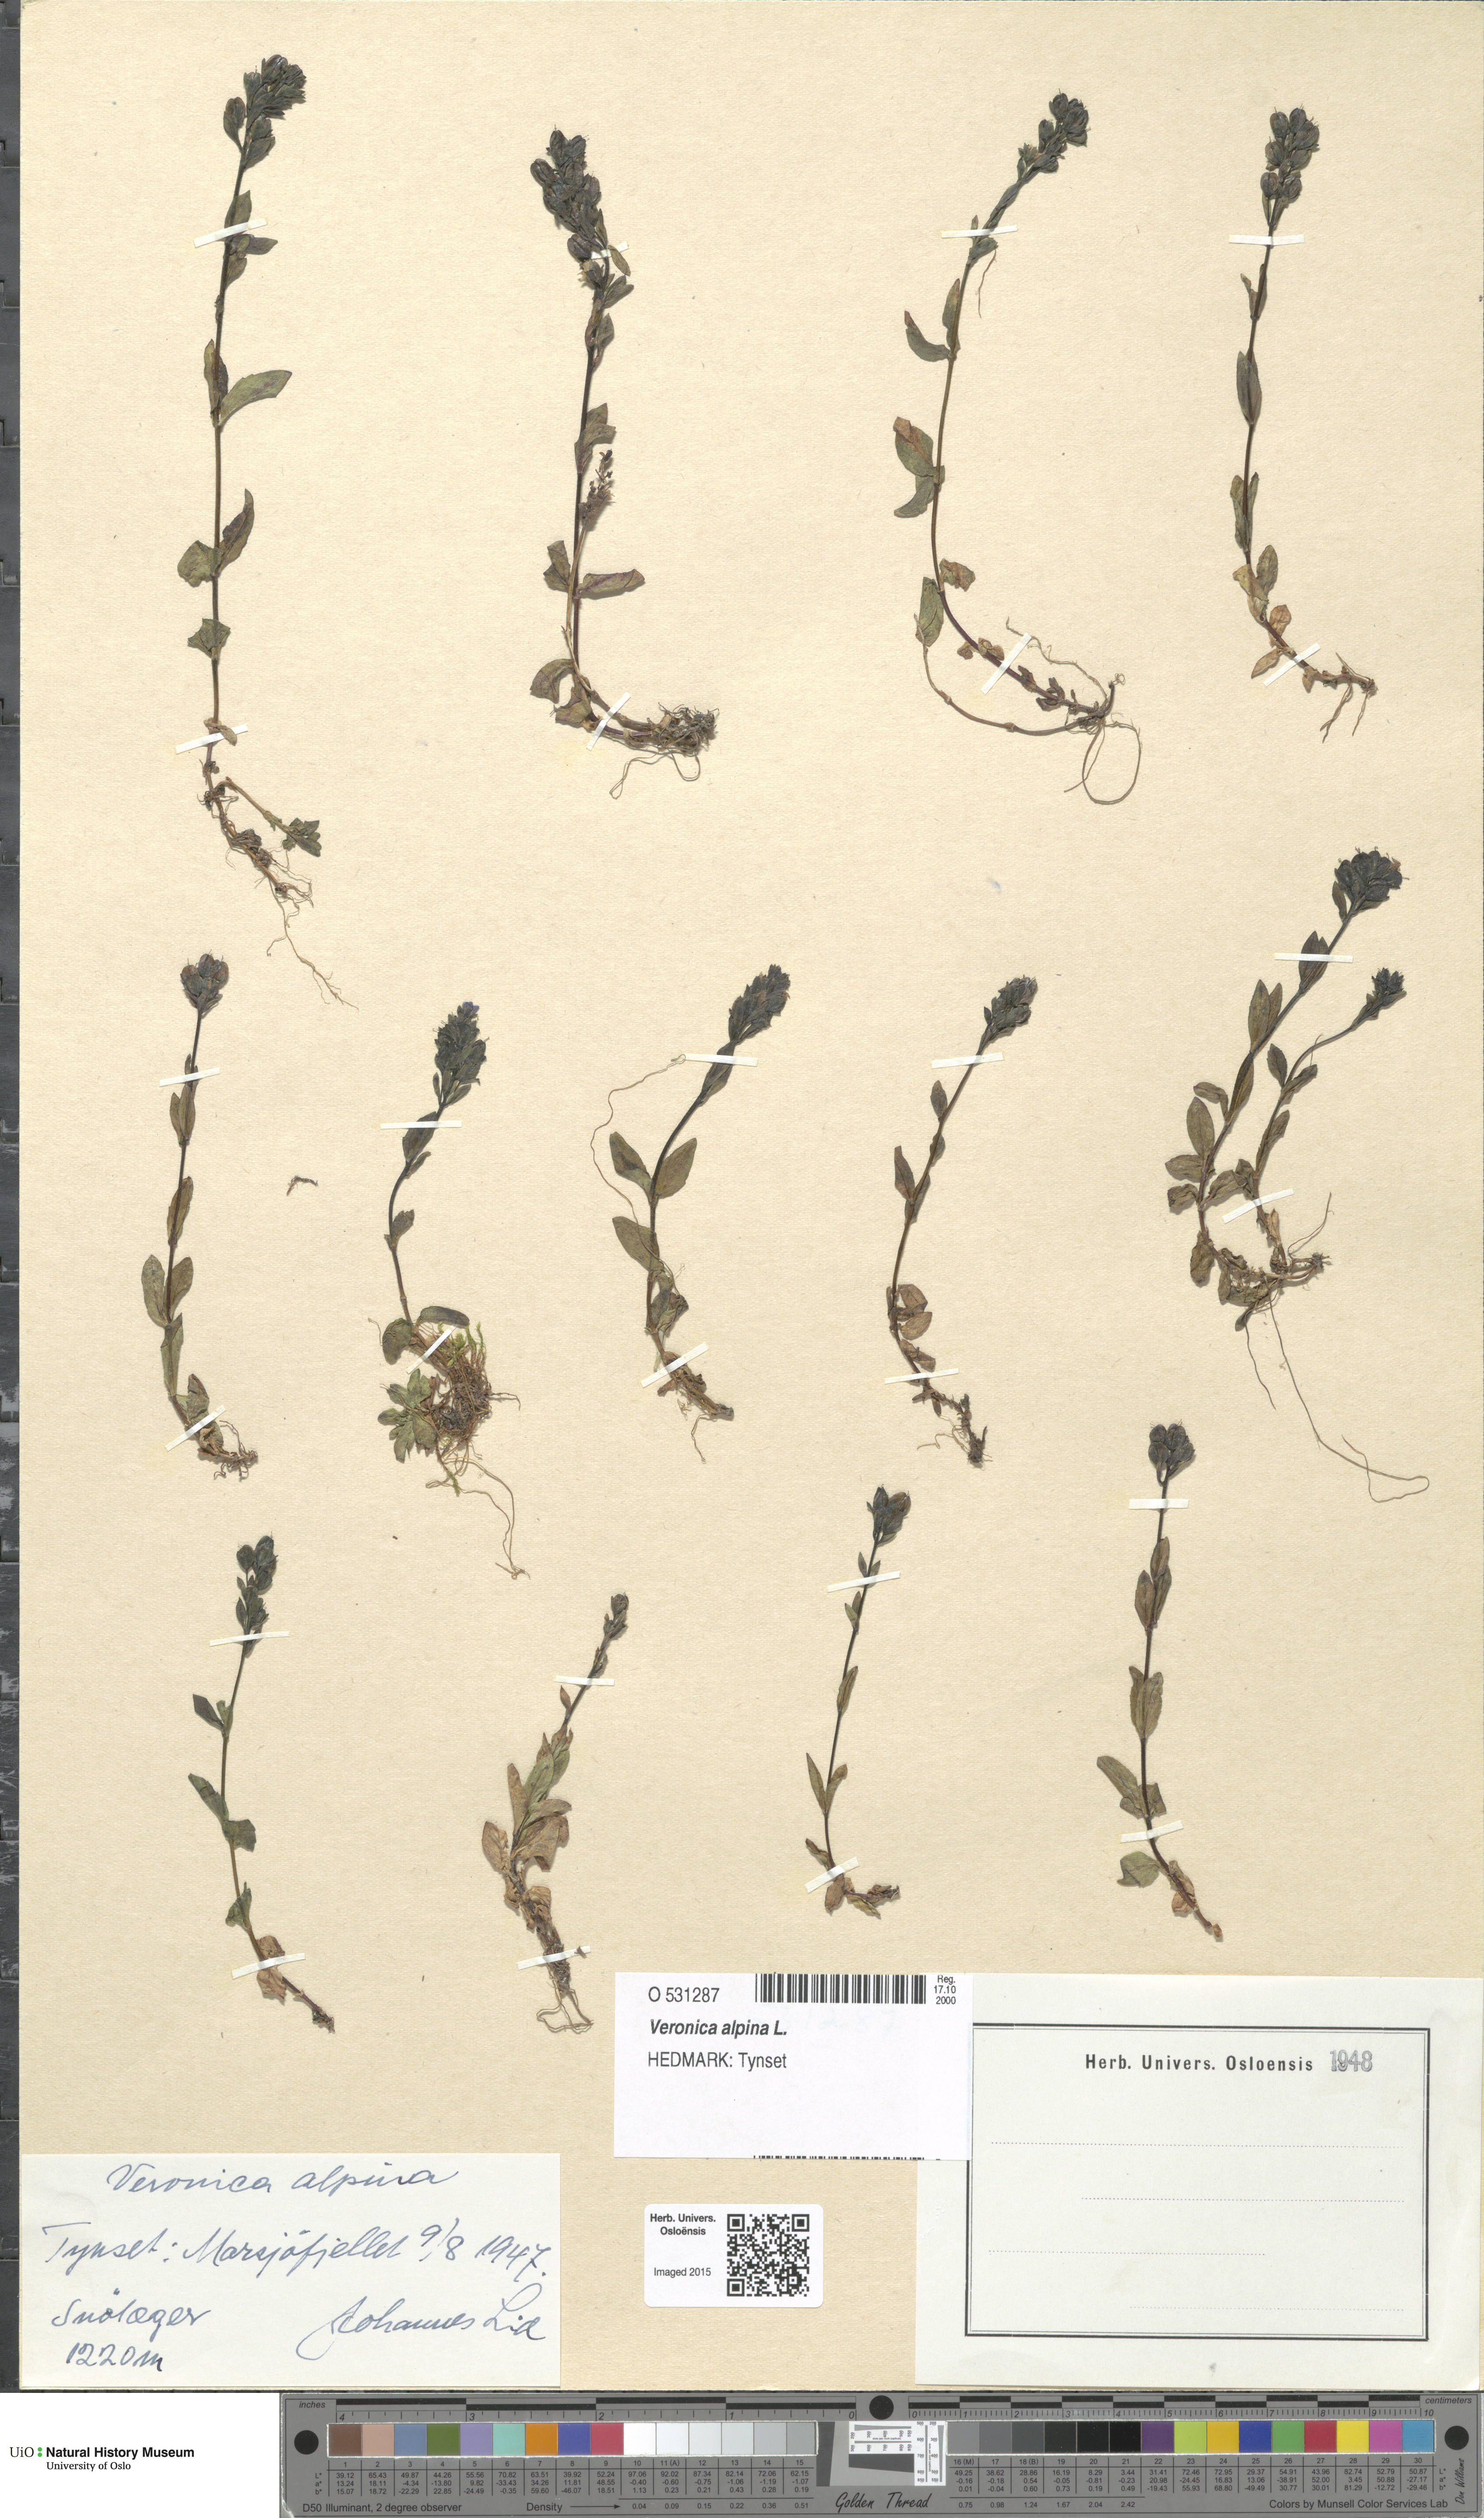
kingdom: Plantae
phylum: Tracheophyta
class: Magnoliopsida
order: Lamiales
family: Plantaginaceae
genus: Veronica
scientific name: Veronica alpina
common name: Alpine speedwell
